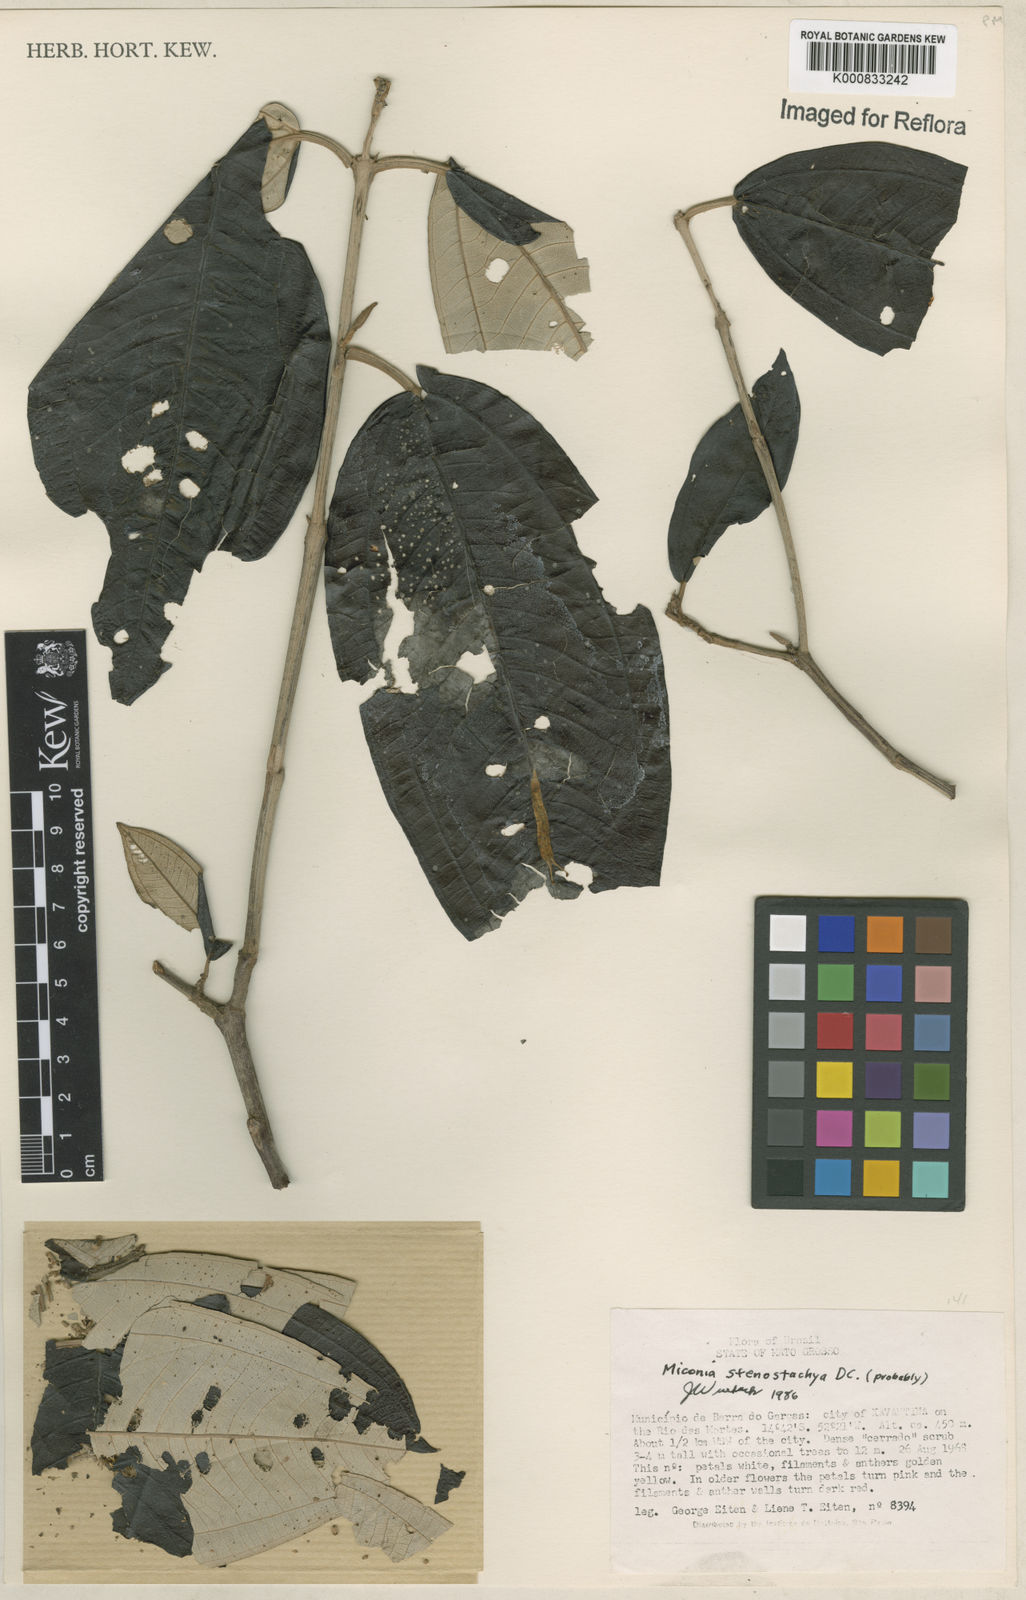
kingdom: Plantae
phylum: Tracheophyta
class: Magnoliopsida
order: Myrtales
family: Melastomataceae
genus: Miconia
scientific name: Miconia stenostachya
